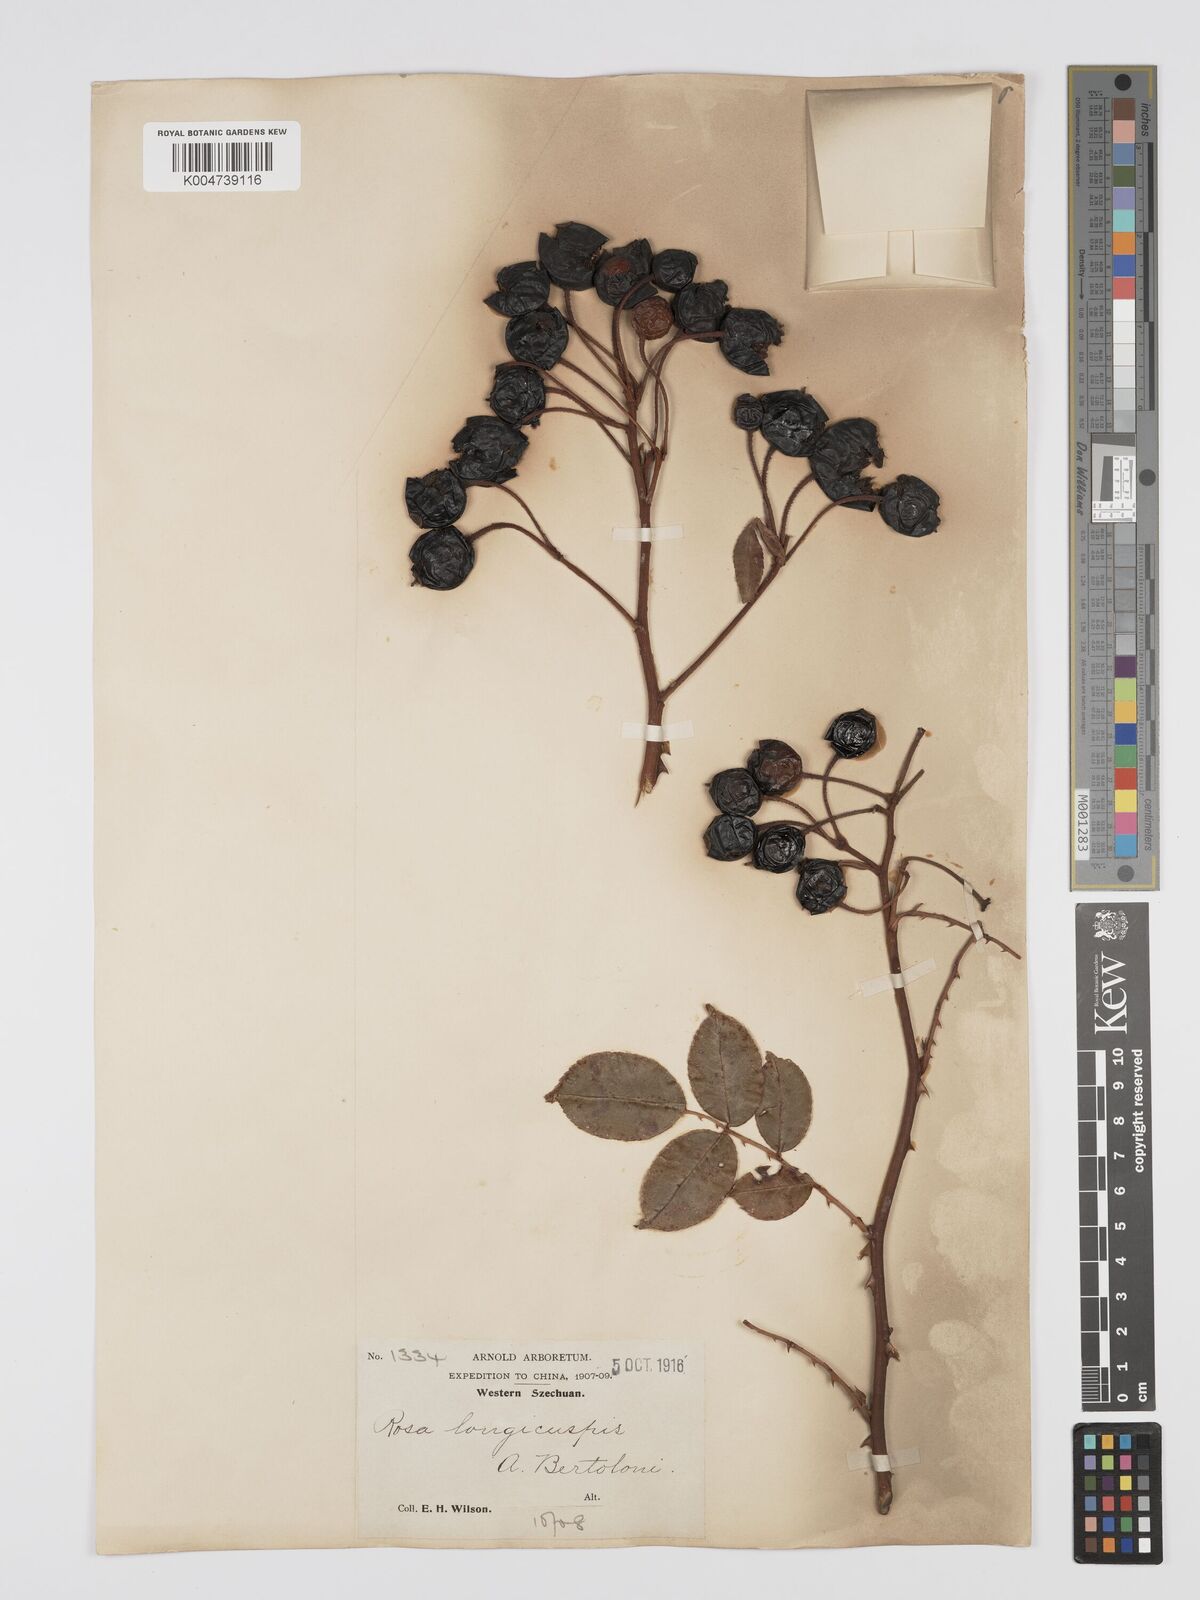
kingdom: Plantae
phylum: Tracheophyta
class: Magnoliopsida
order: Rosales
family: Rosaceae
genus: Rosa
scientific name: Rosa longicuspis
